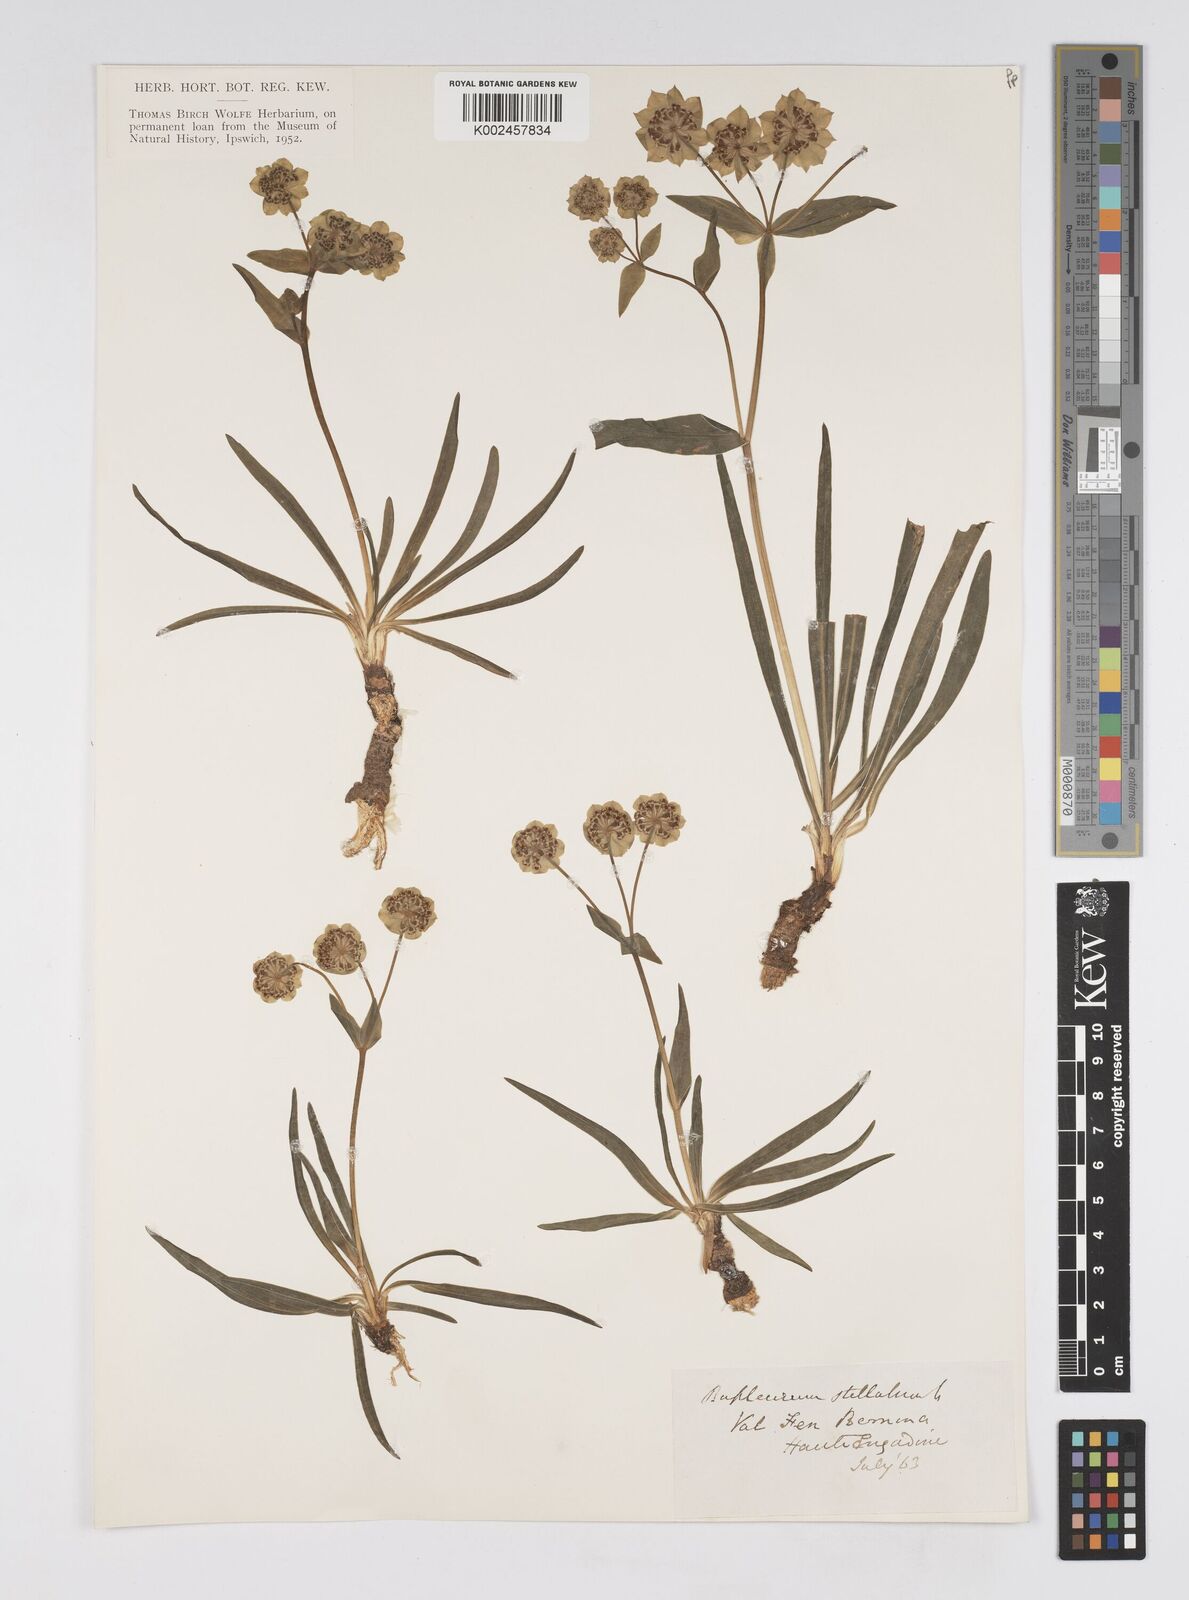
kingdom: Plantae
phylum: Tracheophyta
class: Magnoliopsida
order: Apiales
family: Apiaceae
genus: Bupleurum
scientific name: Bupleurum stellatum
